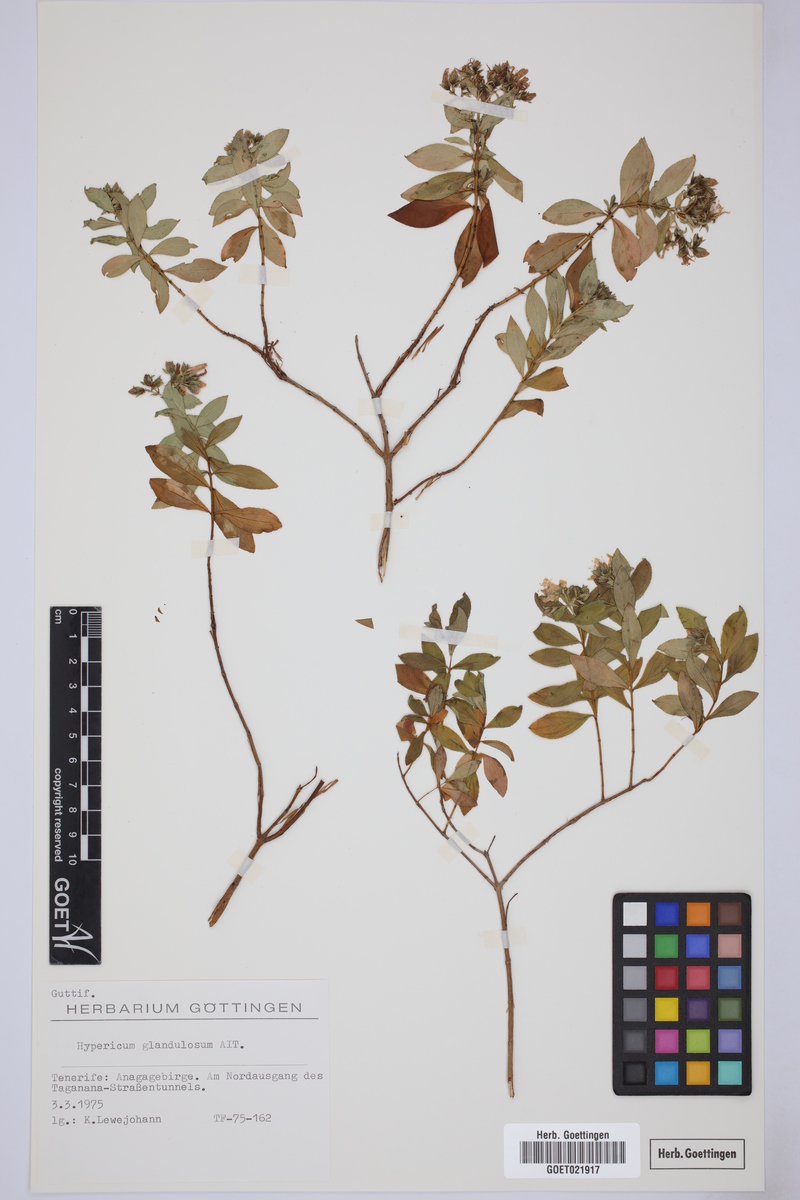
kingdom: Plantae
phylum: Tracheophyta
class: Magnoliopsida
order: Malpighiales
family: Hypericaceae
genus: Hypericum
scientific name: Hypericum glandulosum
